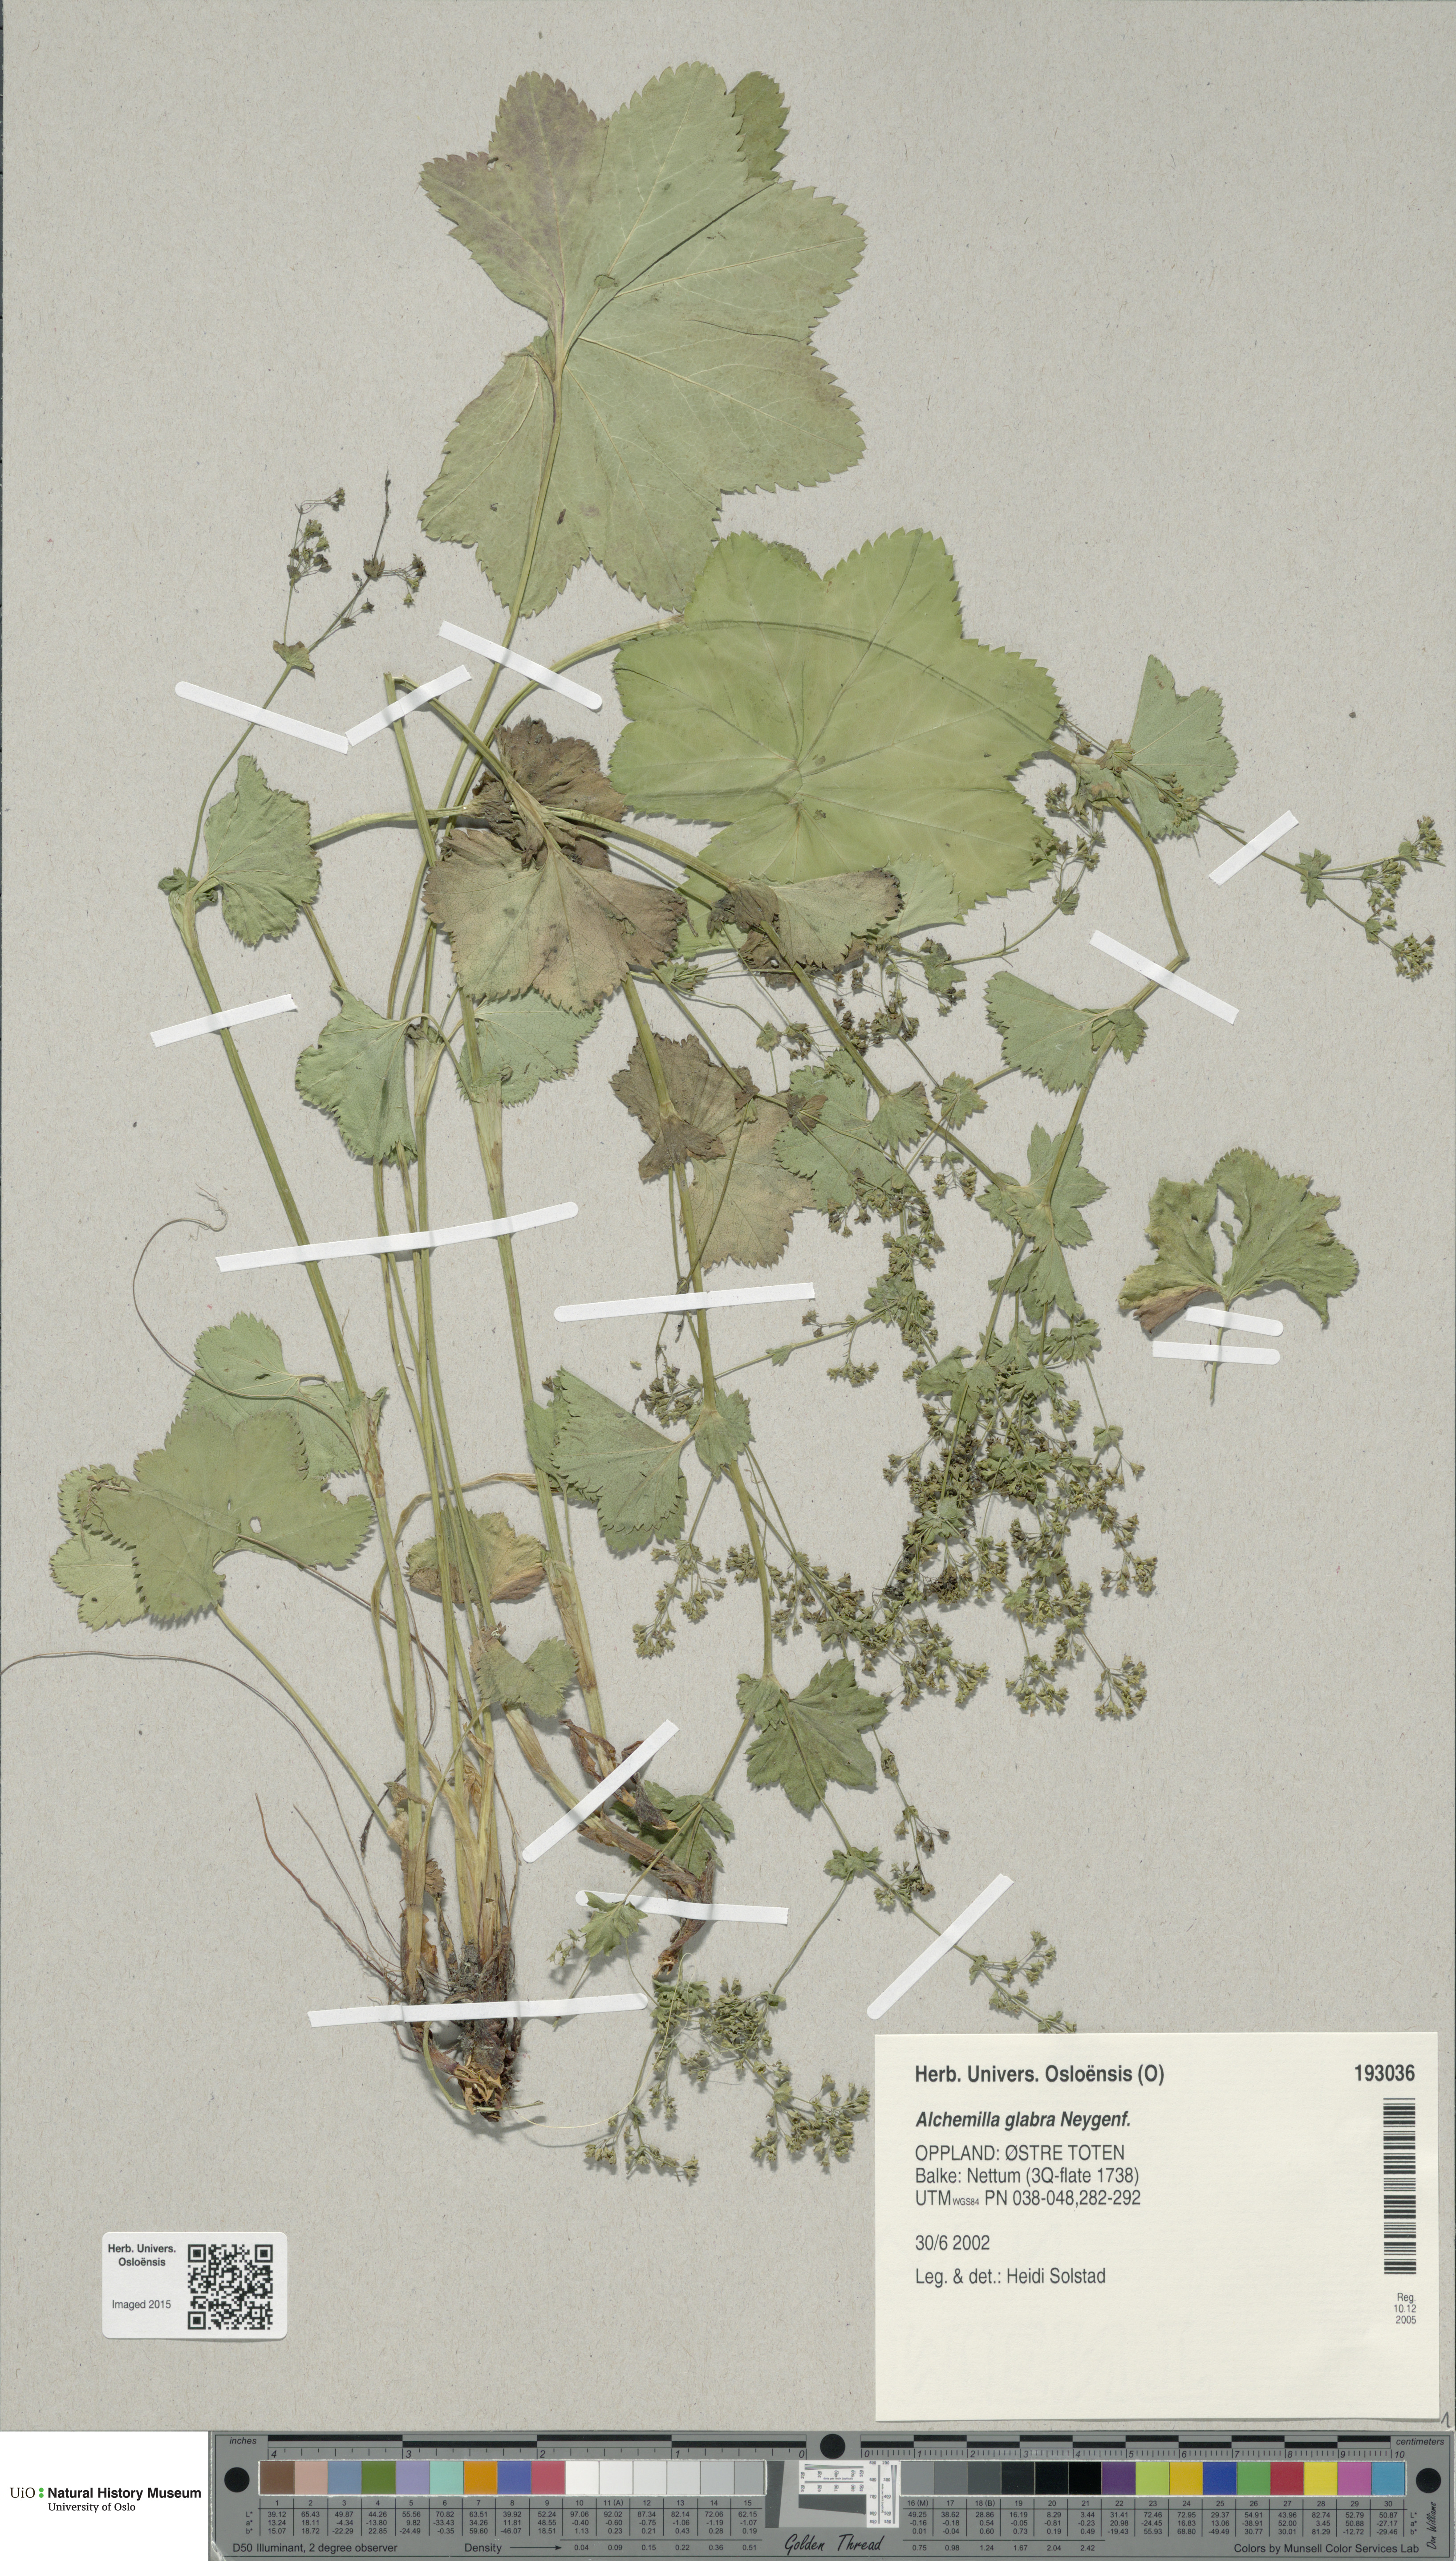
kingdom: Plantae
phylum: Tracheophyta
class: Magnoliopsida
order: Rosales
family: Rosaceae
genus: Alchemilla
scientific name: Alchemilla glabra
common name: Smooth lady's-mantle
